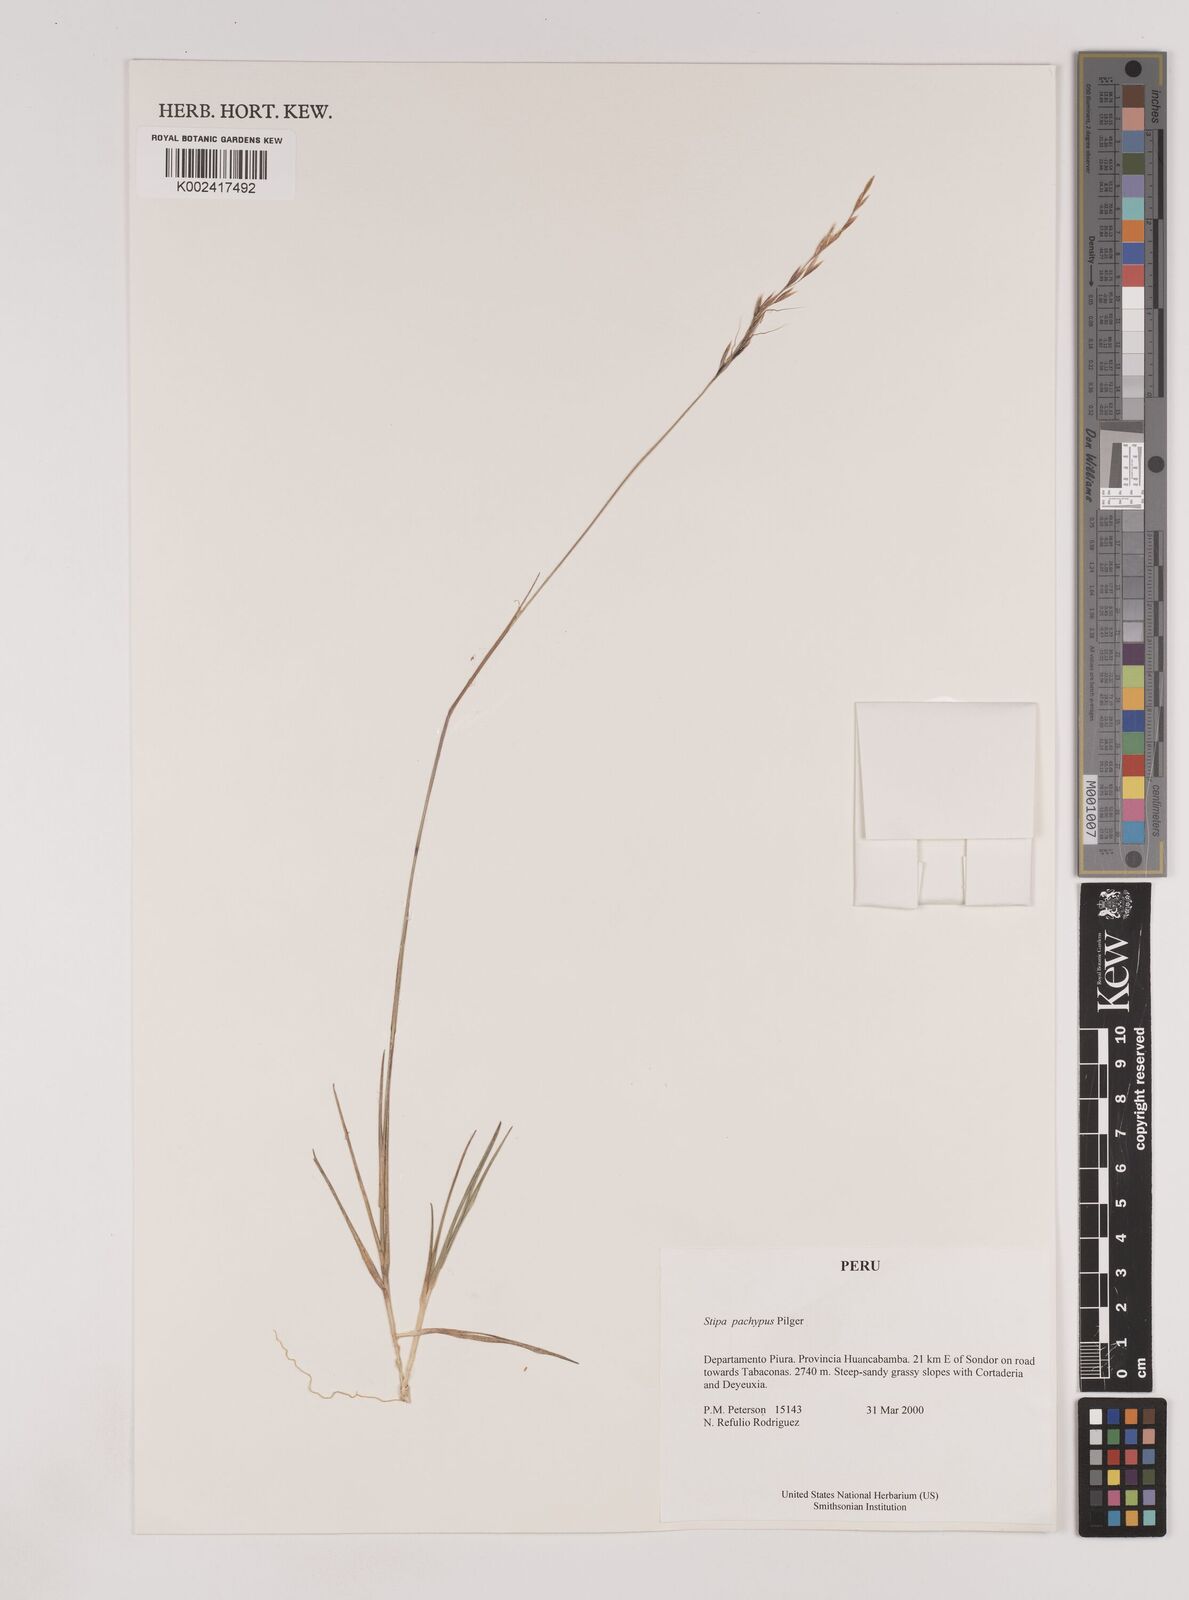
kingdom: Plantae
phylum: Tracheophyta
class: Liliopsida
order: Poales
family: Poaceae
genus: Nassella
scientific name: Nassella
